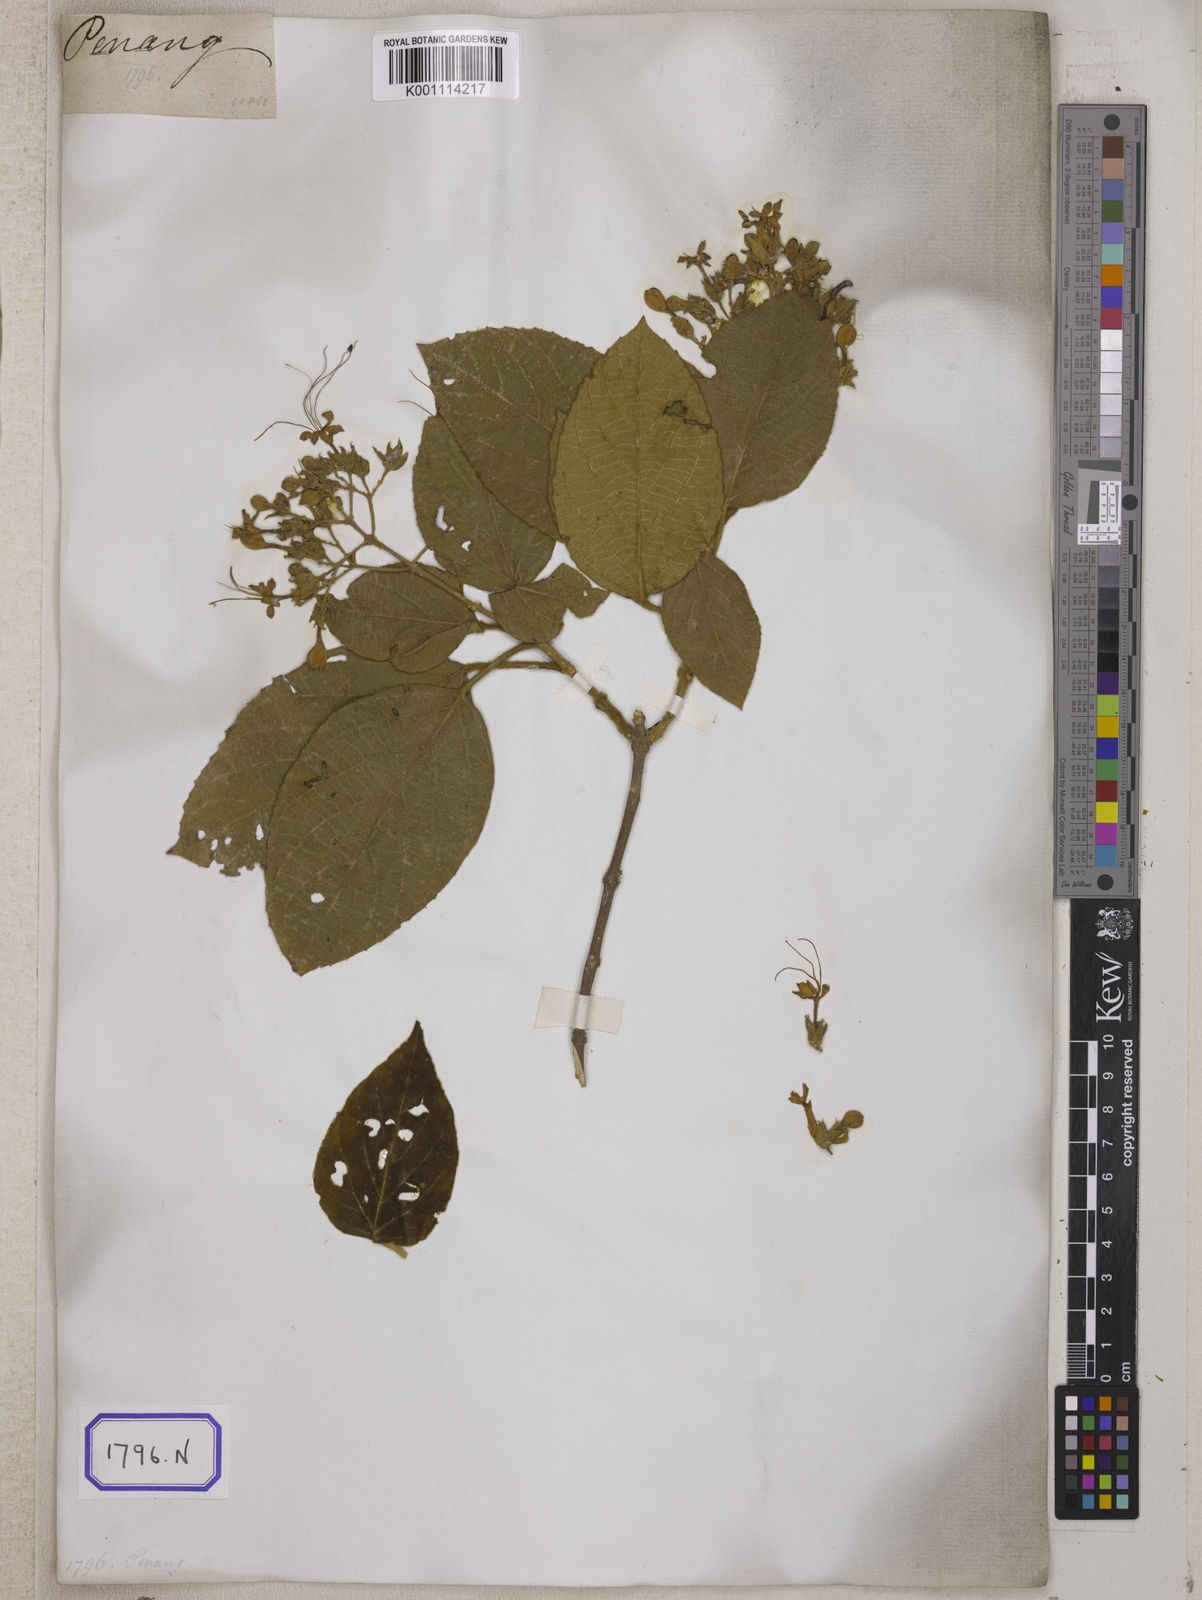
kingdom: Plantae
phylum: Tracheophyta
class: Magnoliopsida
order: Lamiales
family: Lamiaceae
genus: Clerodendrum
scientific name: Clerodendrum infortunatum
